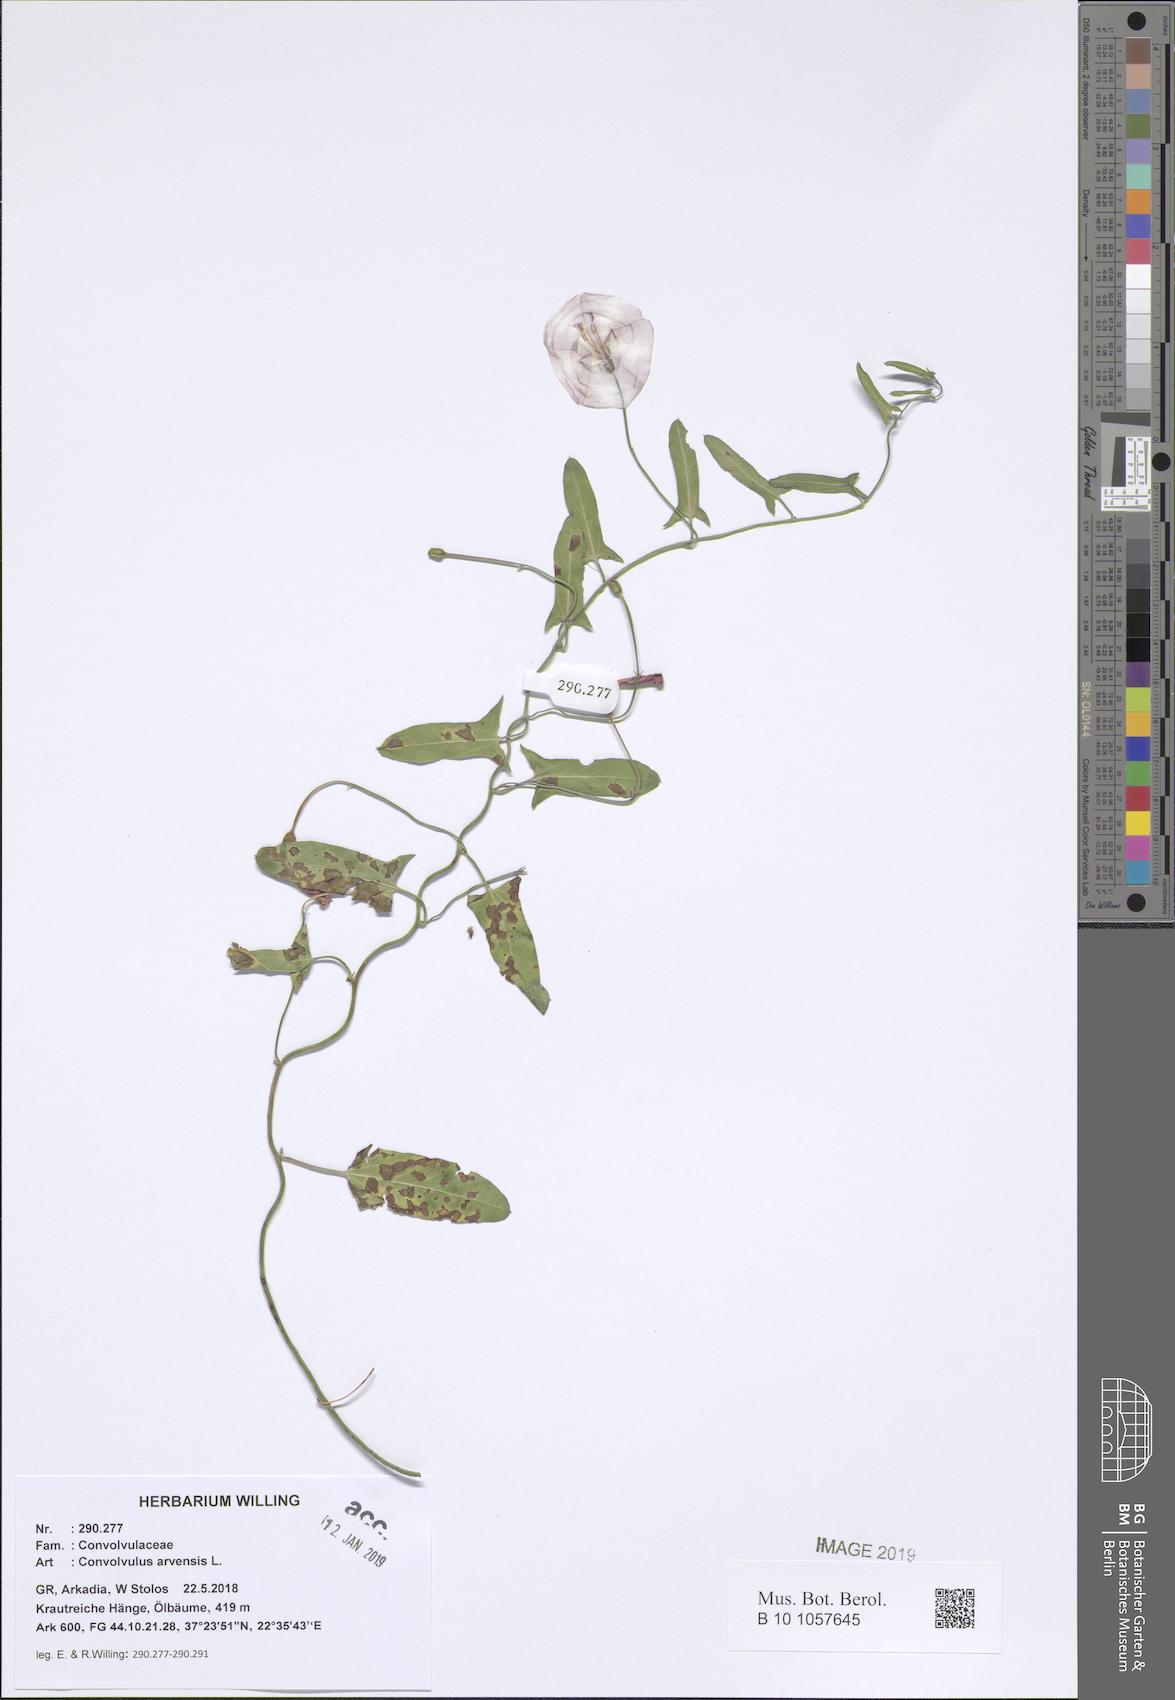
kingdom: Plantae
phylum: Tracheophyta
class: Magnoliopsida
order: Solanales
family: Convolvulaceae
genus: Convolvulus
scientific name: Convolvulus arvensis
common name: Field bindweed
